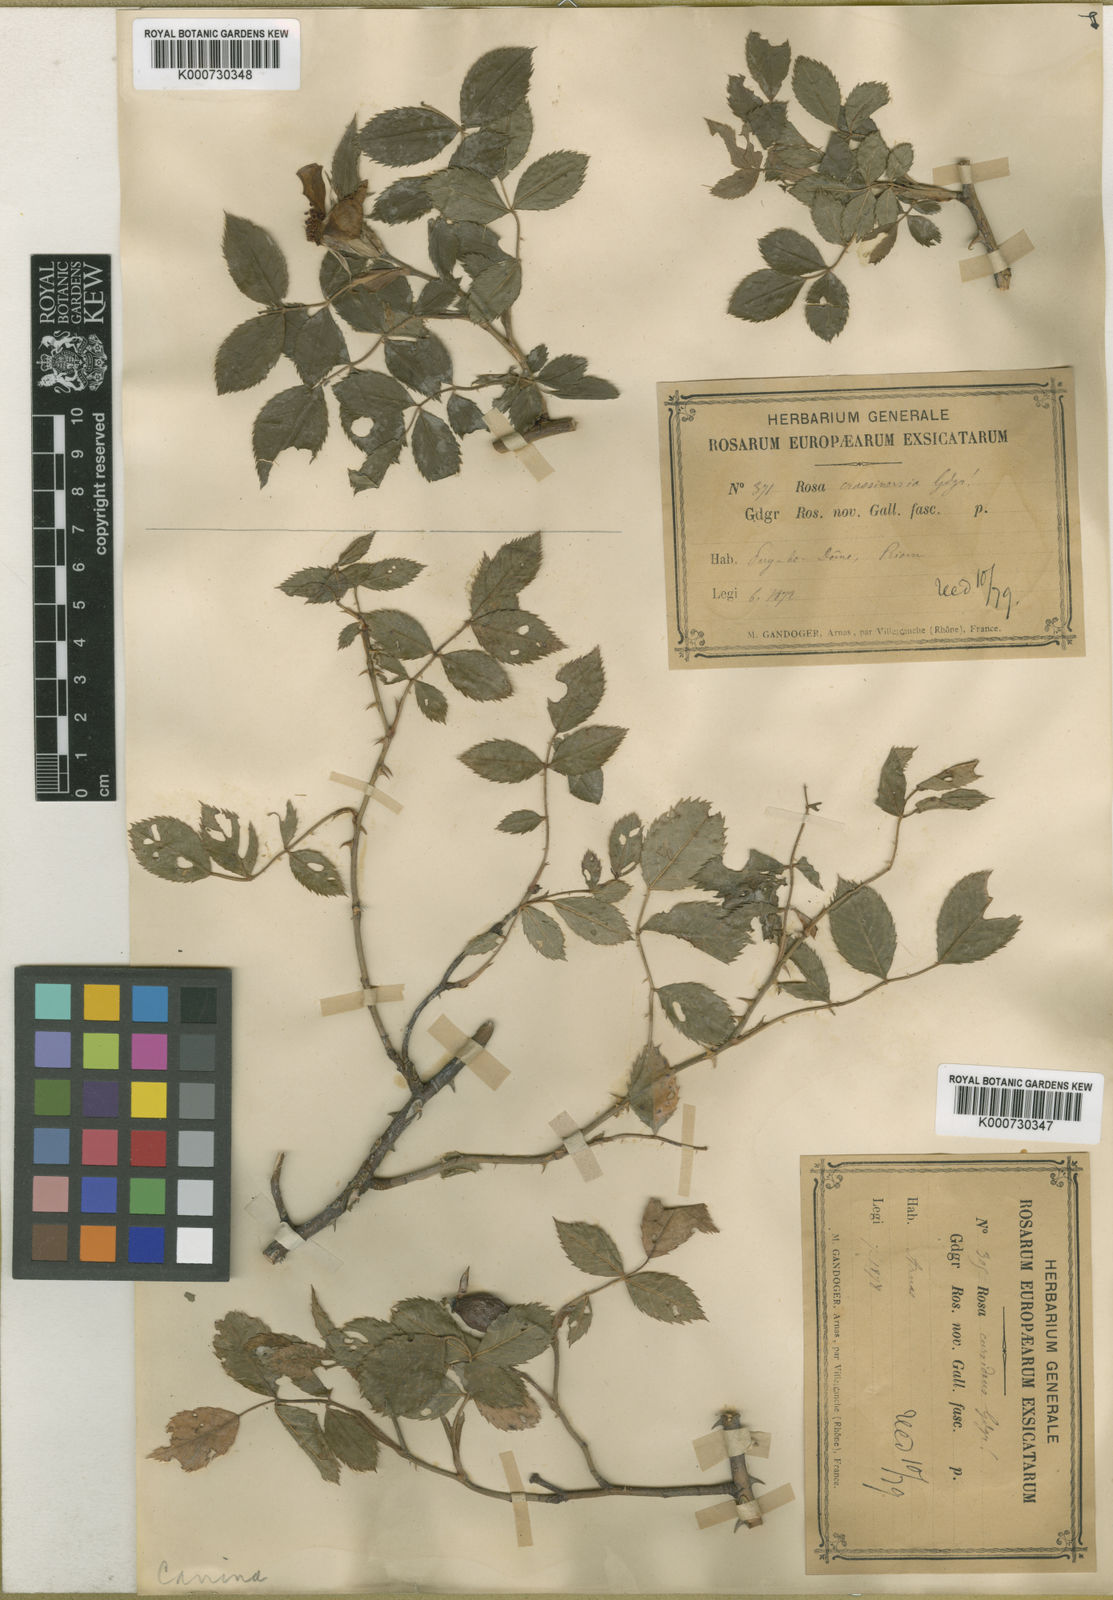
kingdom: Plantae
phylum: Tracheophyta
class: Magnoliopsida
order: Rosales
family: Rosaceae
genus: Rosa
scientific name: Rosa canina
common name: Dog rose
